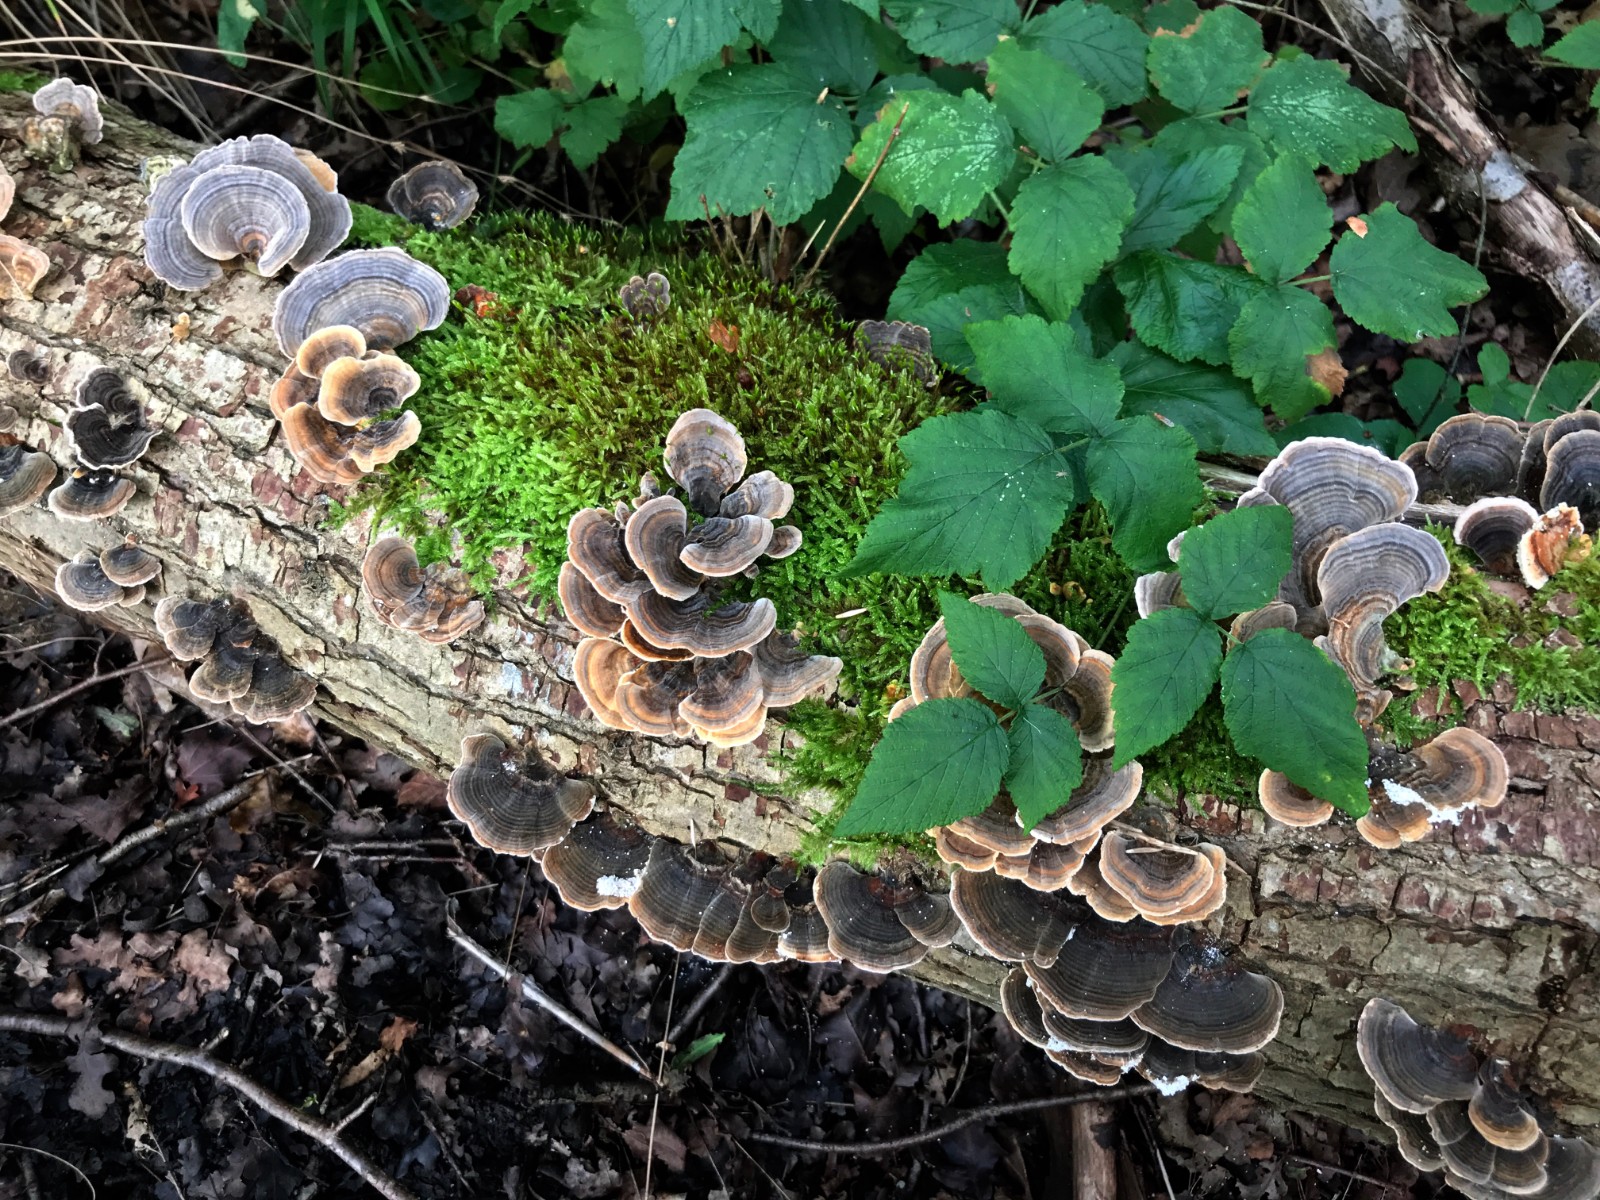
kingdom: Fungi
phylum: Basidiomycota
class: Agaricomycetes
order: Polyporales
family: Polyporaceae
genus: Trametes
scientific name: Trametes versicolor
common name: broget læderporesvamp
